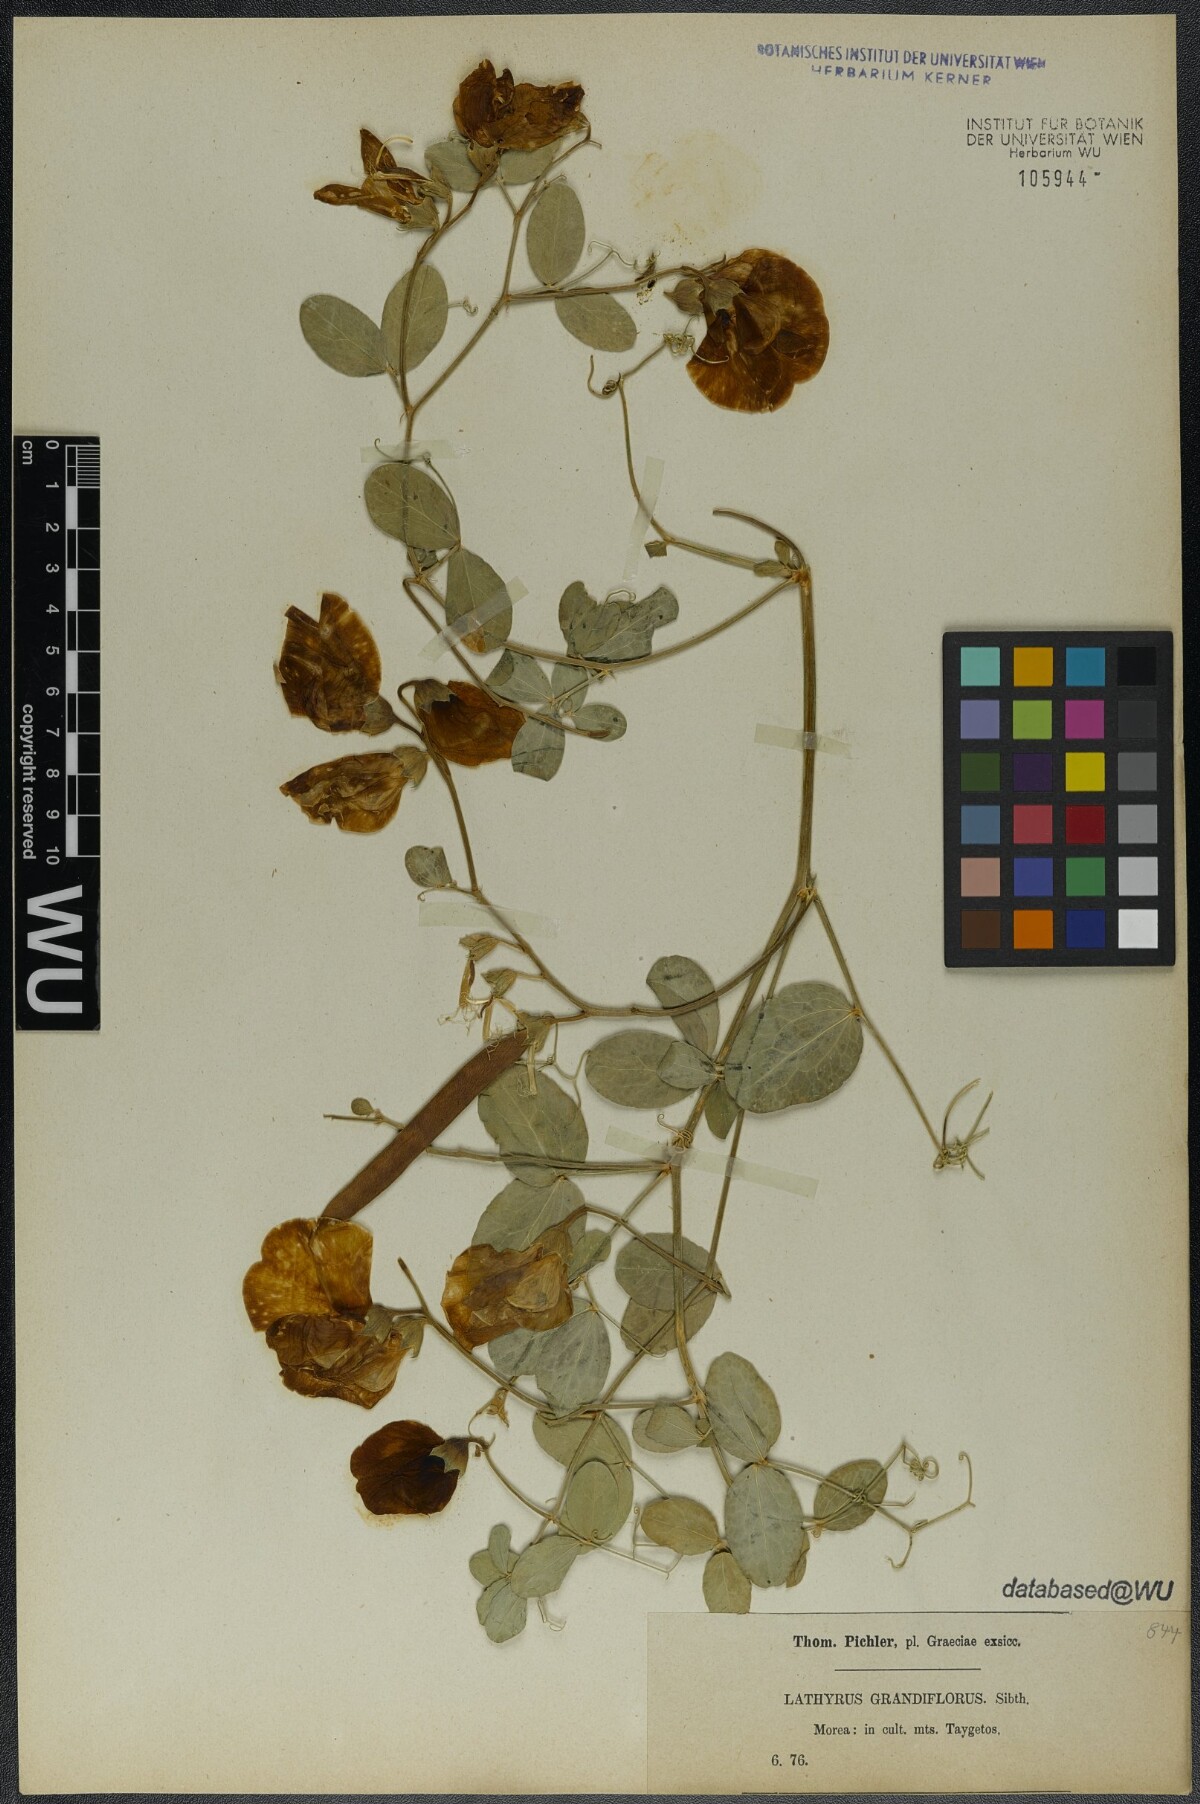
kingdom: Plantae
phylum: Tracheophyta
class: Magnoliopsida
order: Fabales
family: Fabaceae
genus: Lathyrus
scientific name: Lathyrus grandiflorus
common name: Two-flowered everlasting-pea
